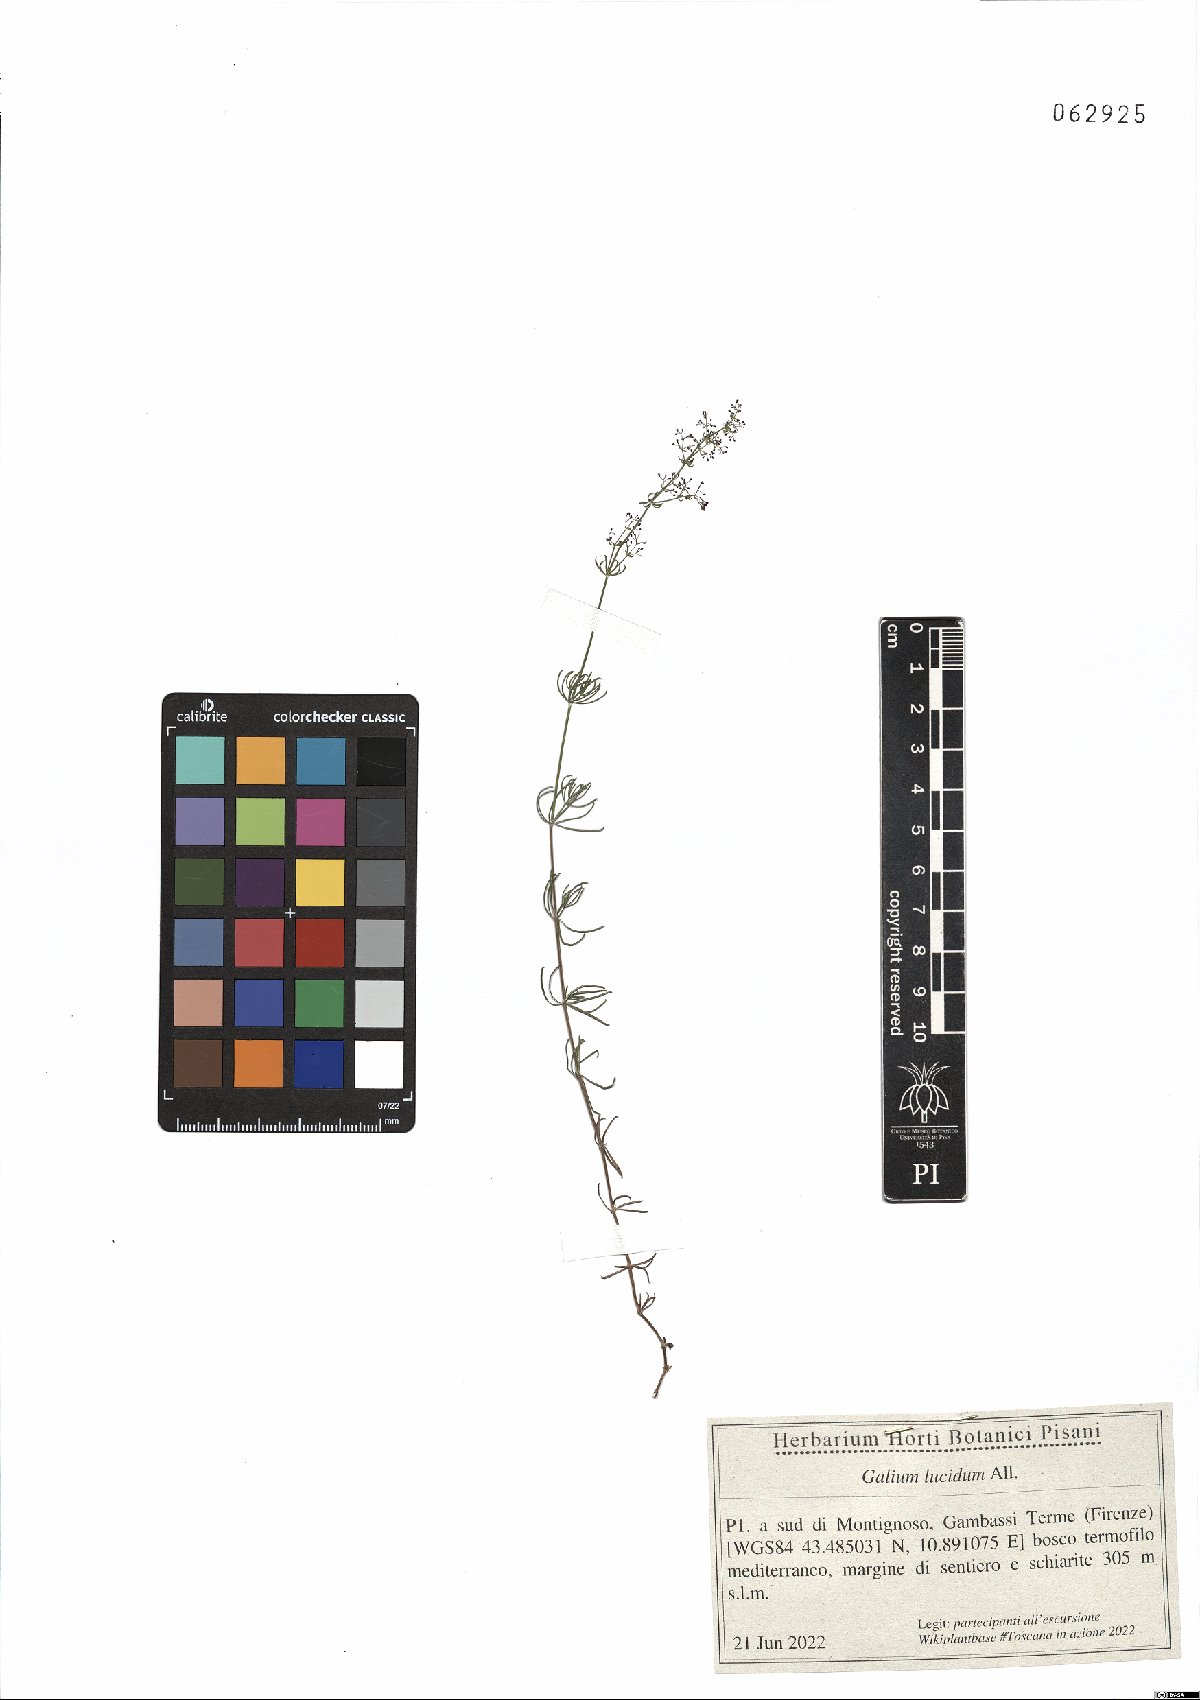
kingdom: Plantae
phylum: Tracheophyta
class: Magnoliopsida
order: Gentianales
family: Rubiaceae
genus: Galium
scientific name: Galium lucidum
